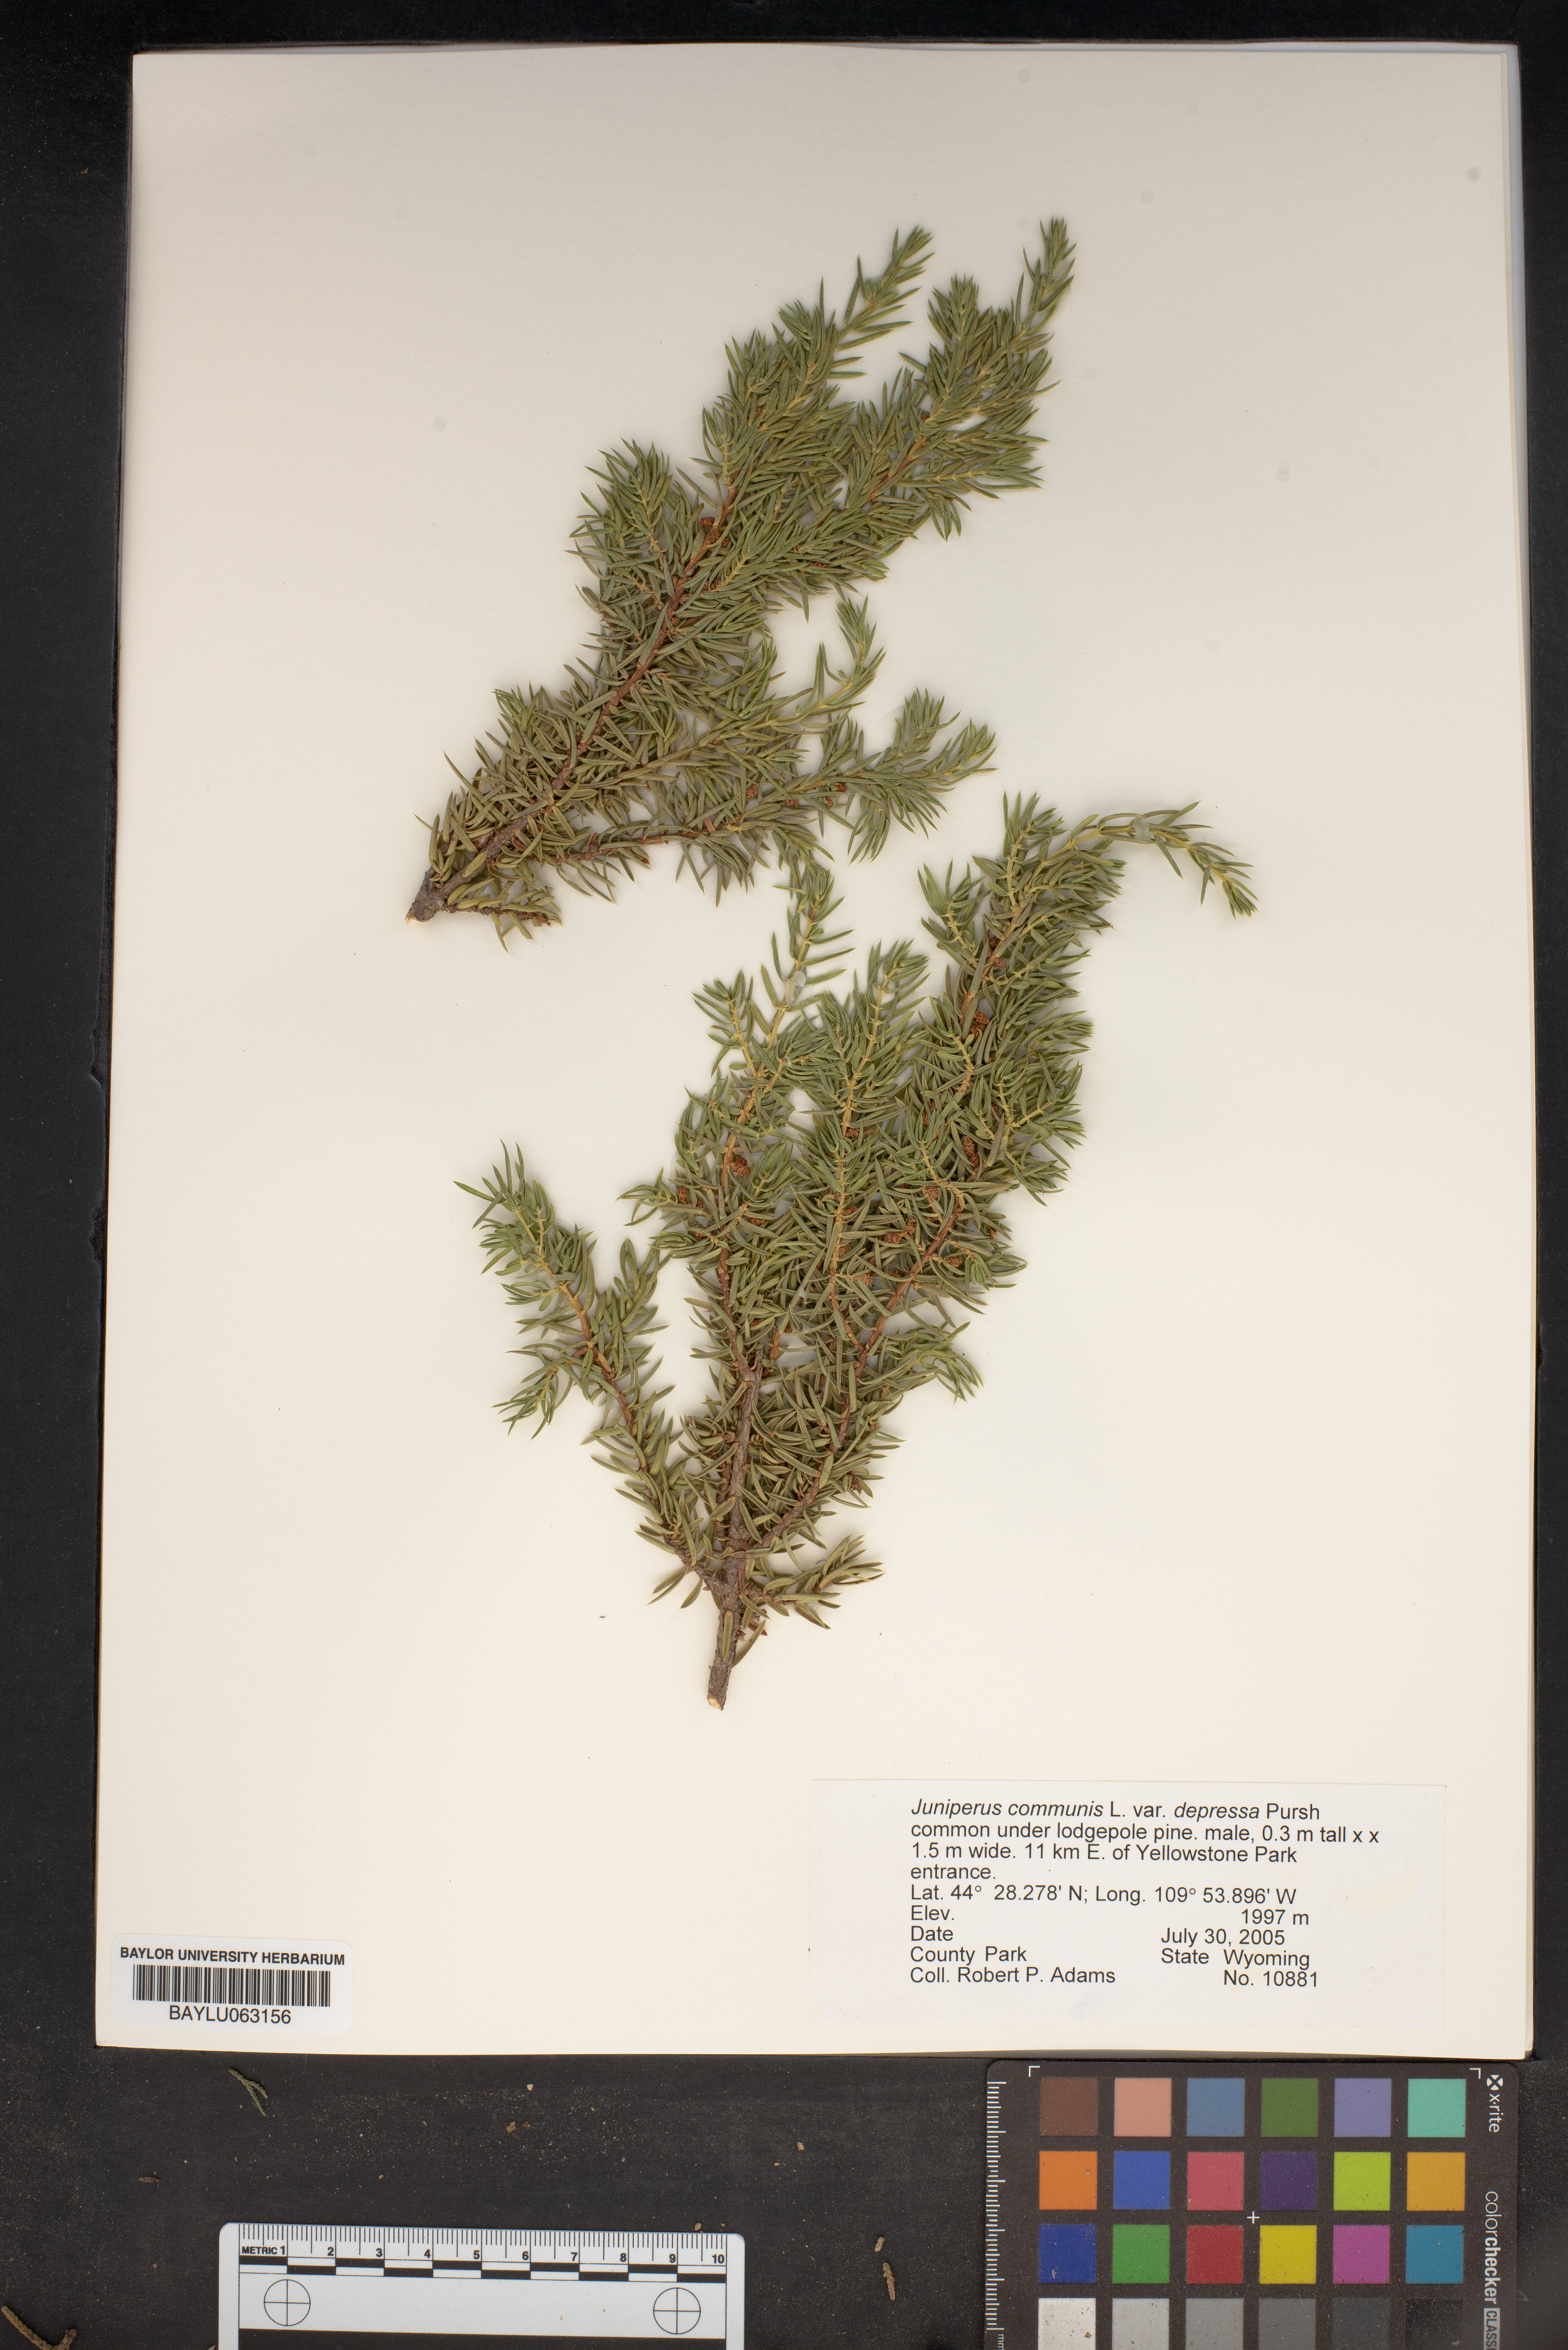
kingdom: Plantae
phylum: Tracheophyta
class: Pinopsida
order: Pinales
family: Cupressaceae
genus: Juniperus
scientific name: Juniperus communis
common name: Common juniper
